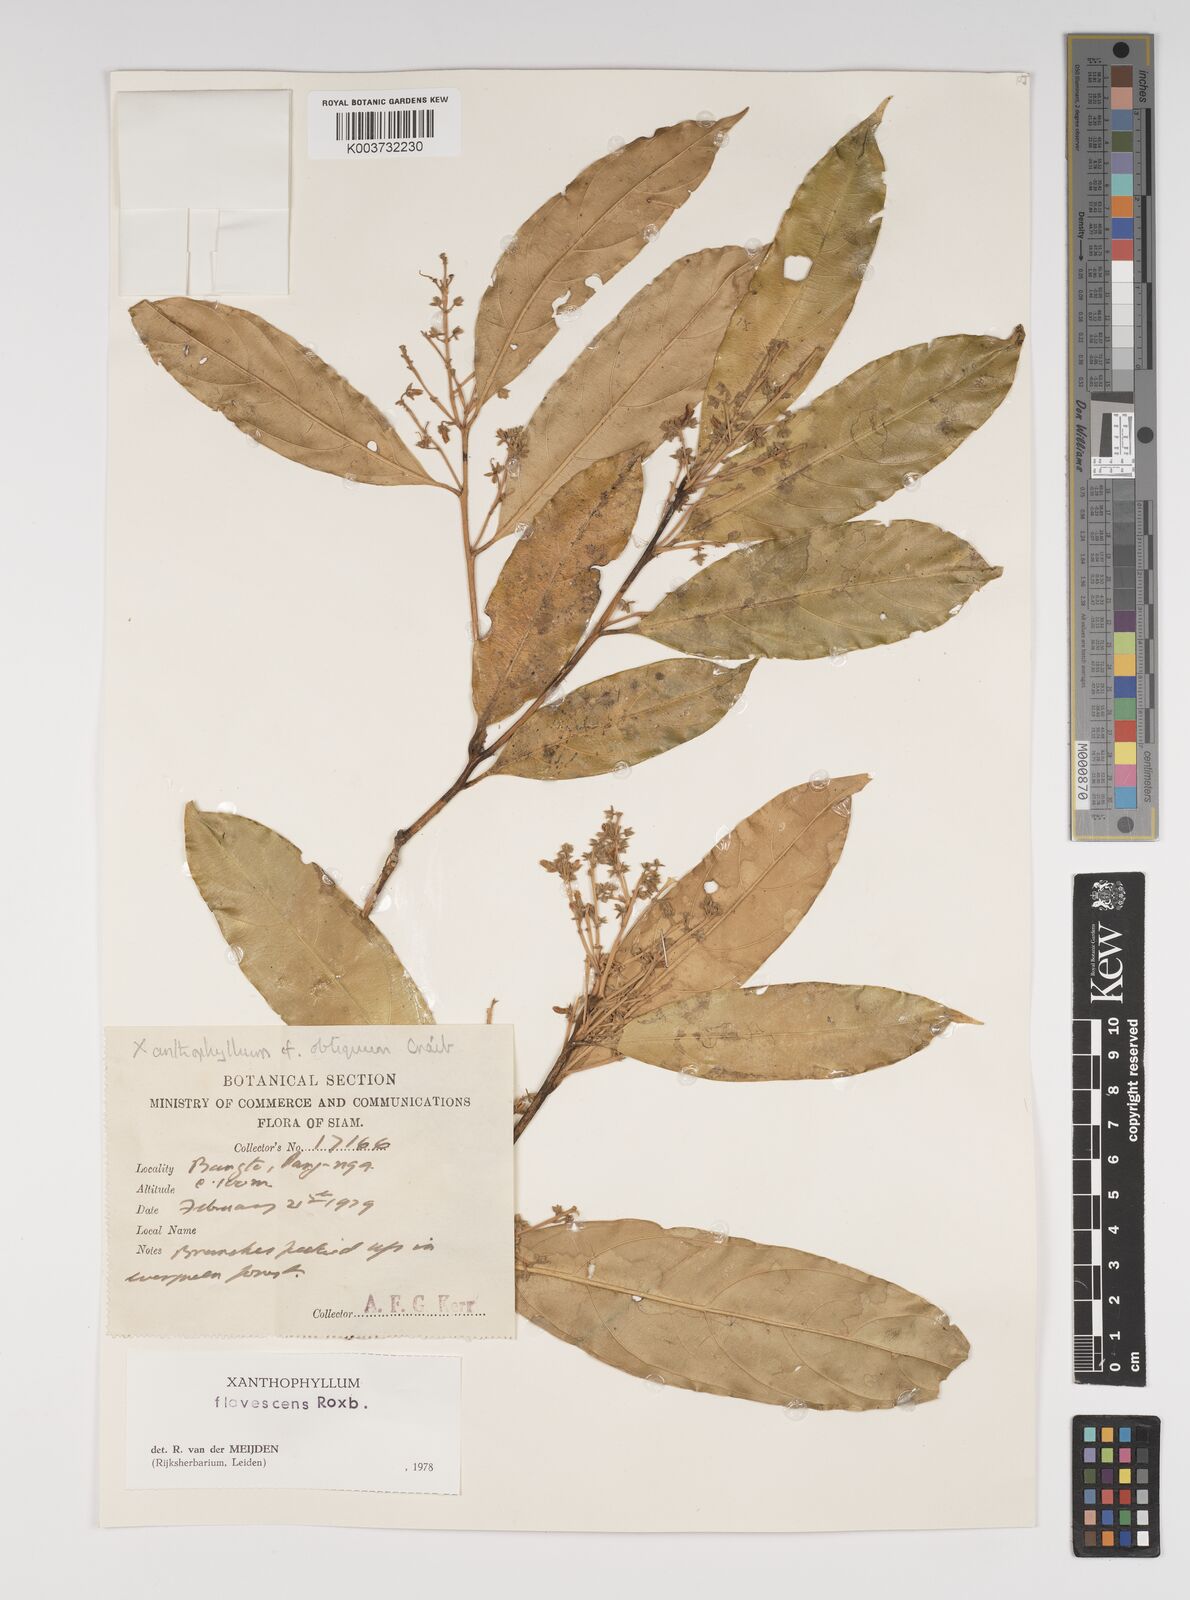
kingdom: Plantae
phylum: Tracheophyta
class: Magnoliopsida
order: Fabales
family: Polygalaceae
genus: Xanthophyllum
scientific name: Xanthophyllum flavescens
